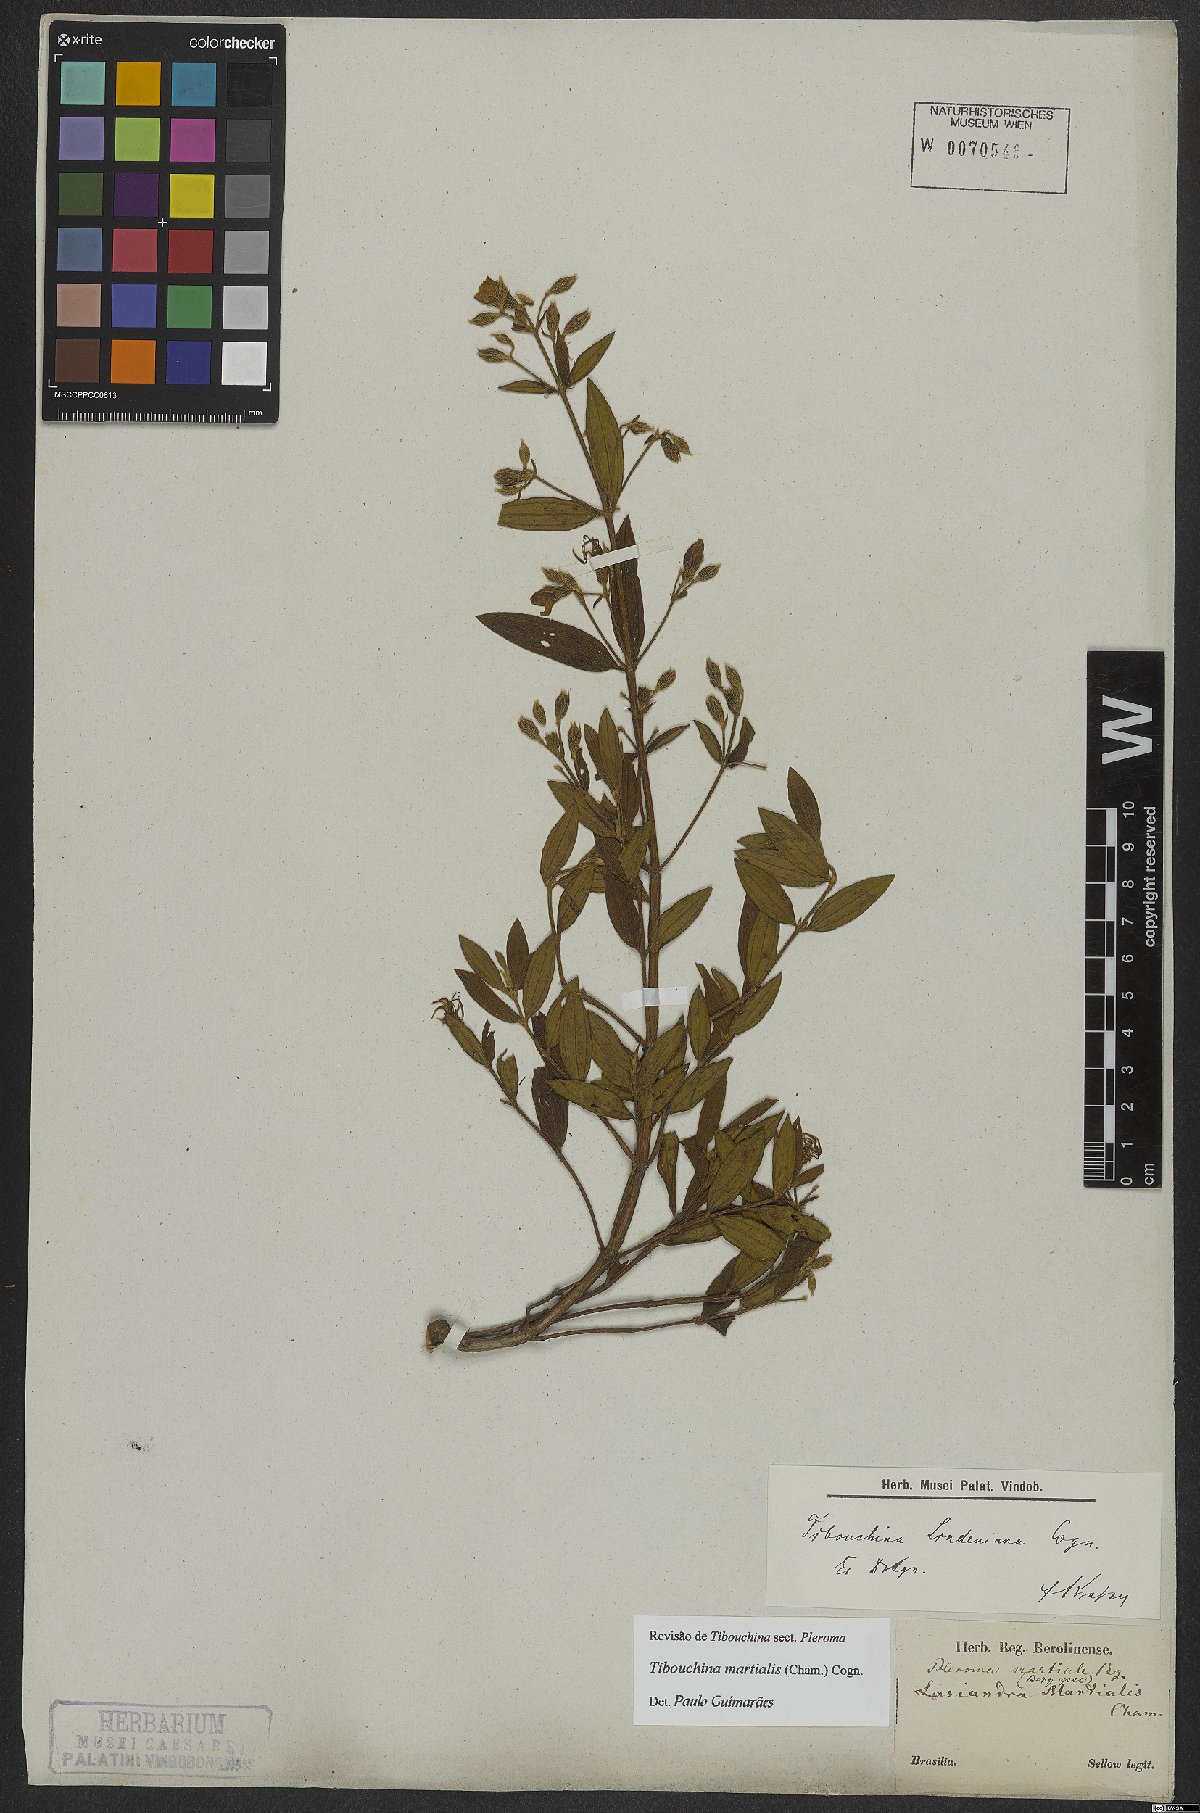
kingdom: Plantae
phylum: Tracheophyta
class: Magnoliopsida
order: Myrtales
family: Melastomataceae
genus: Pleroma
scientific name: Pleroma martiale
